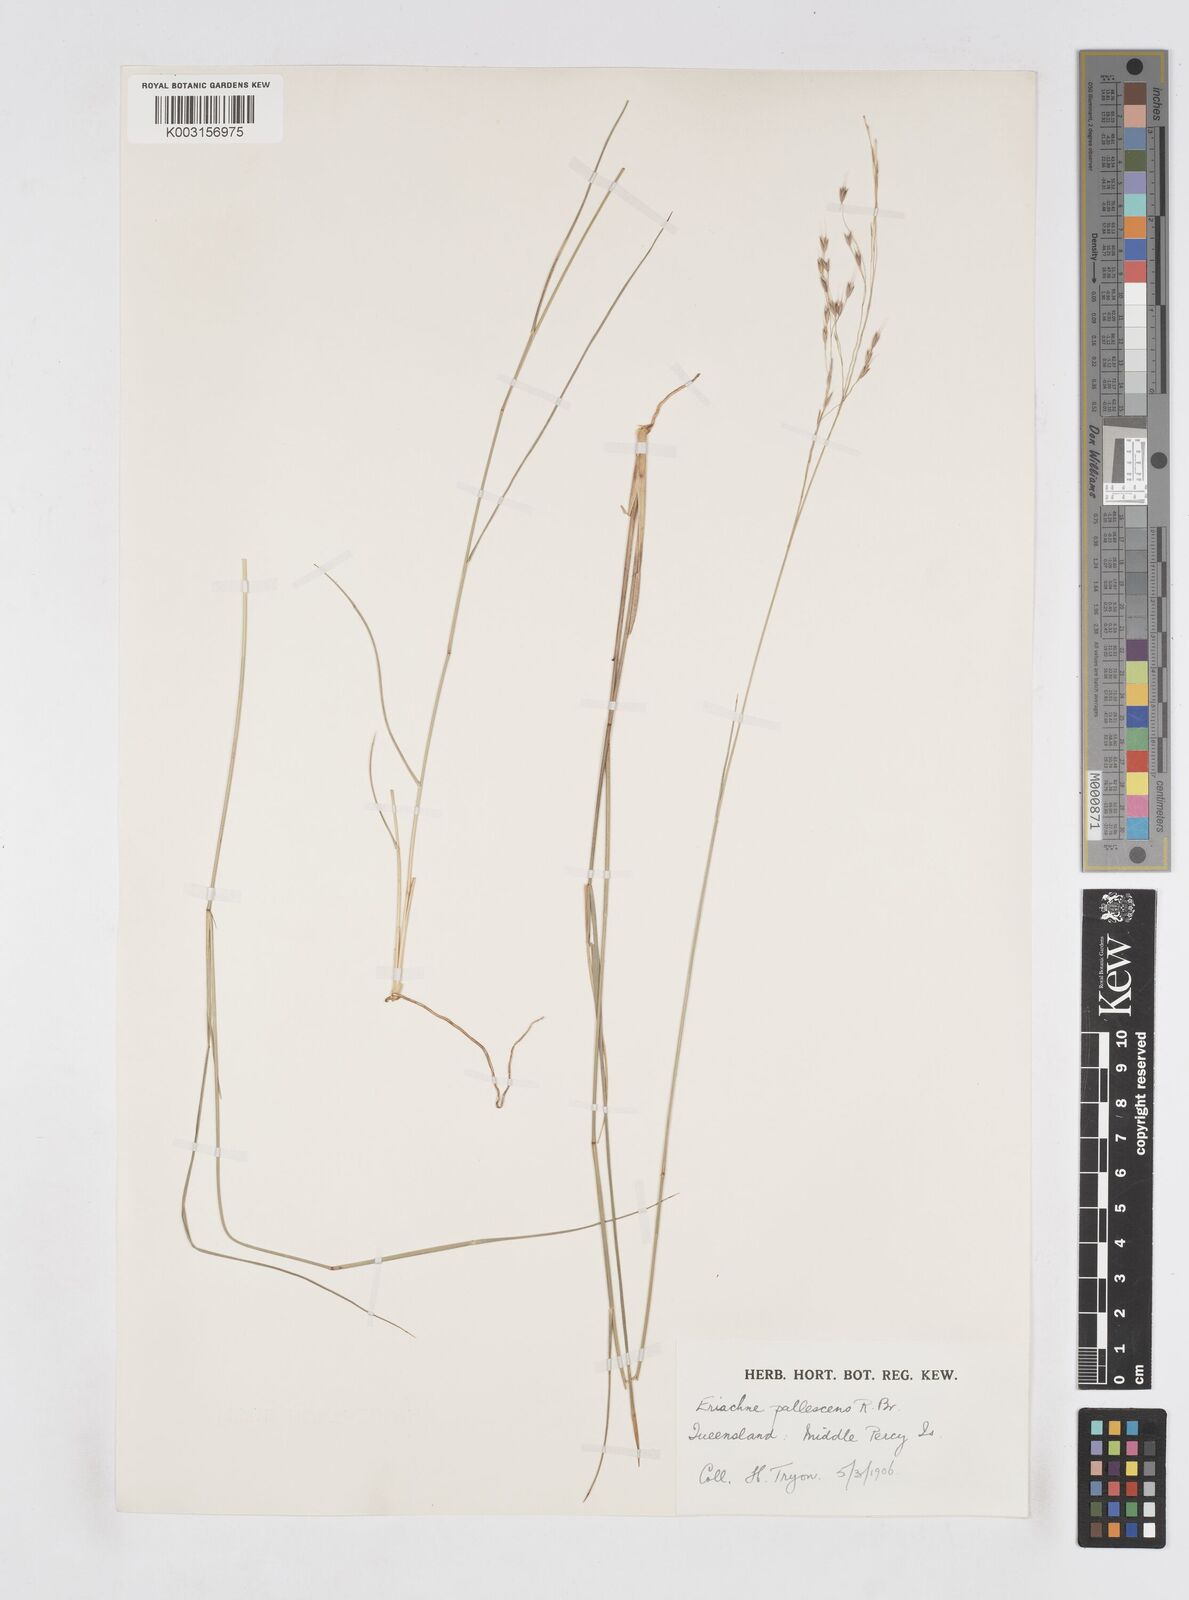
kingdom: Plantae
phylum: Tracheophyta
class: Liliopsida
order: Poales
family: Poaceae
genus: Eriachne
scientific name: Eriachne pallescens
